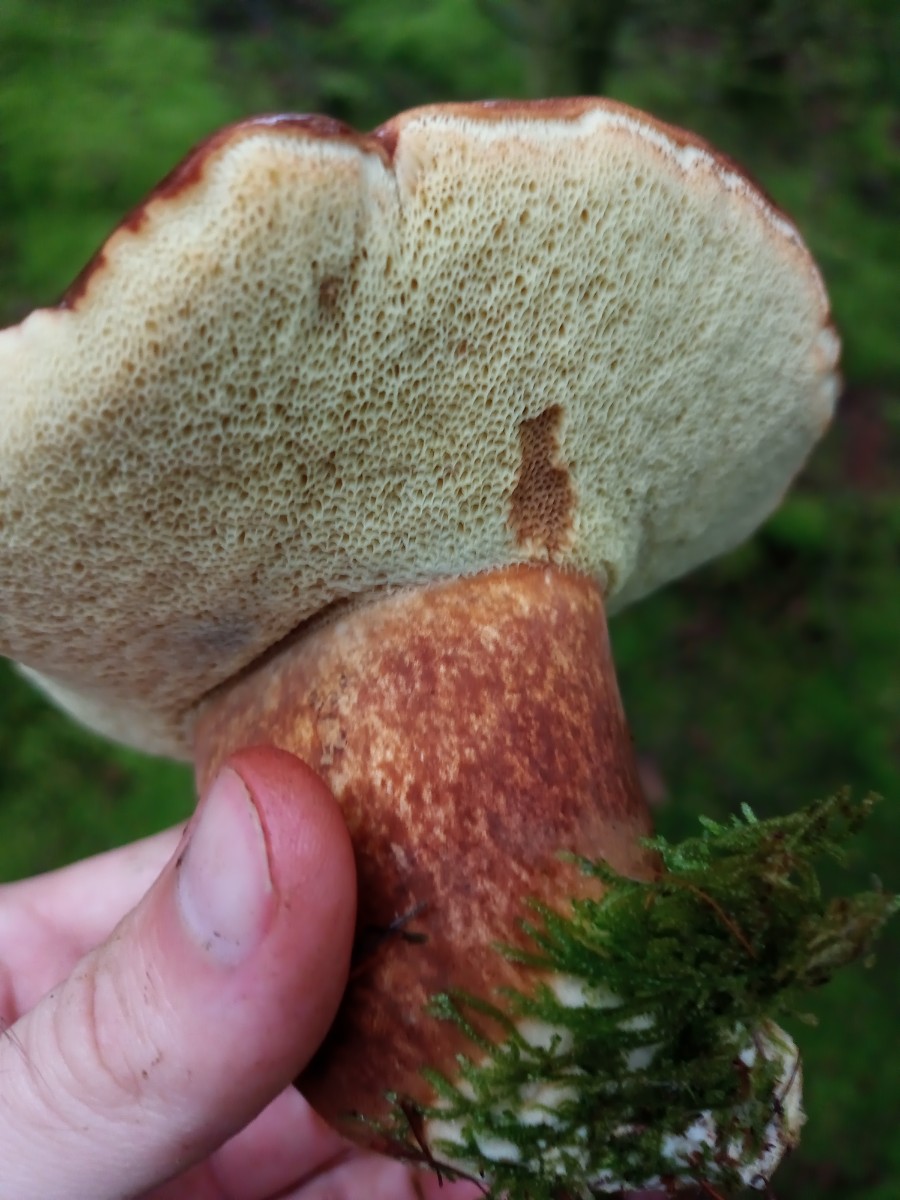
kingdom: Fungi
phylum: Basidiomycota
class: Agaricomycetes
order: Boletales
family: Boletaceae
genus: Imleria
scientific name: Imleria badia
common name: brunstokket rørhat
